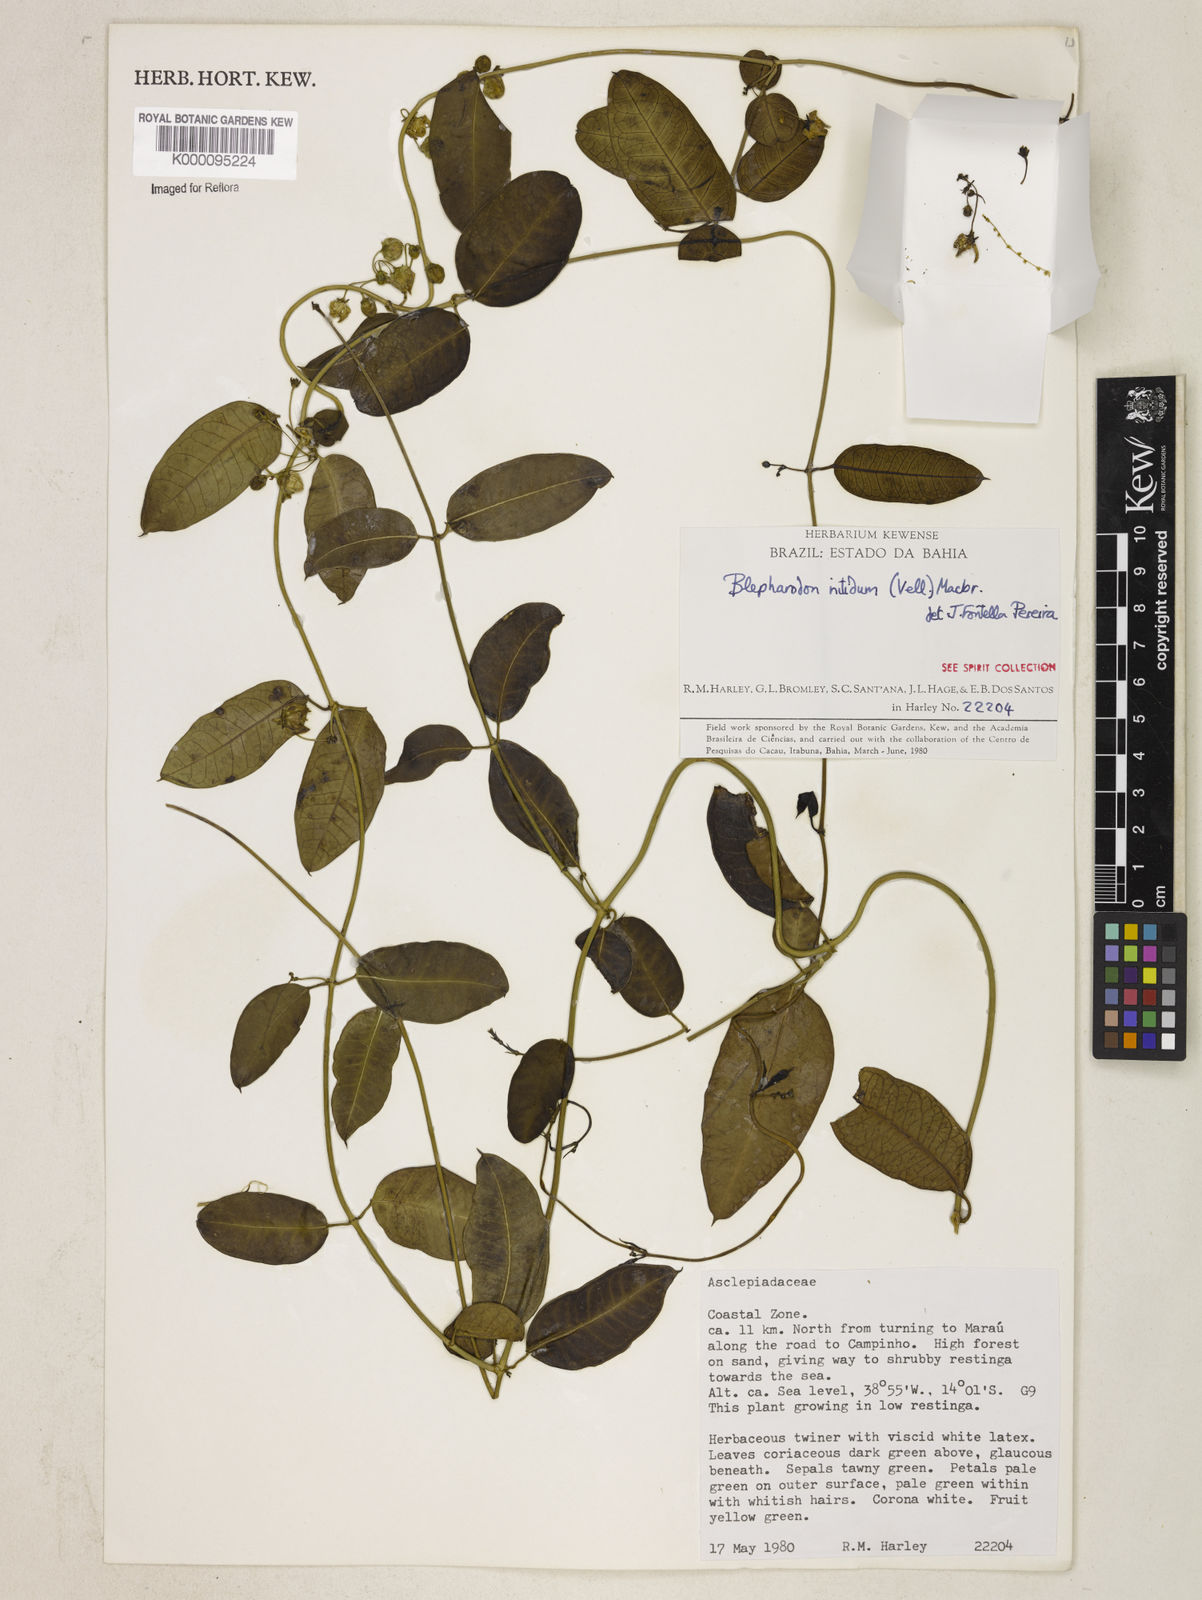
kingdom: Plantae
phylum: Tracheophyta
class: Magnoliopsida
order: Gentianales
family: Apocynaceae
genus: Blepharodon
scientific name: Blepharodon pictum
